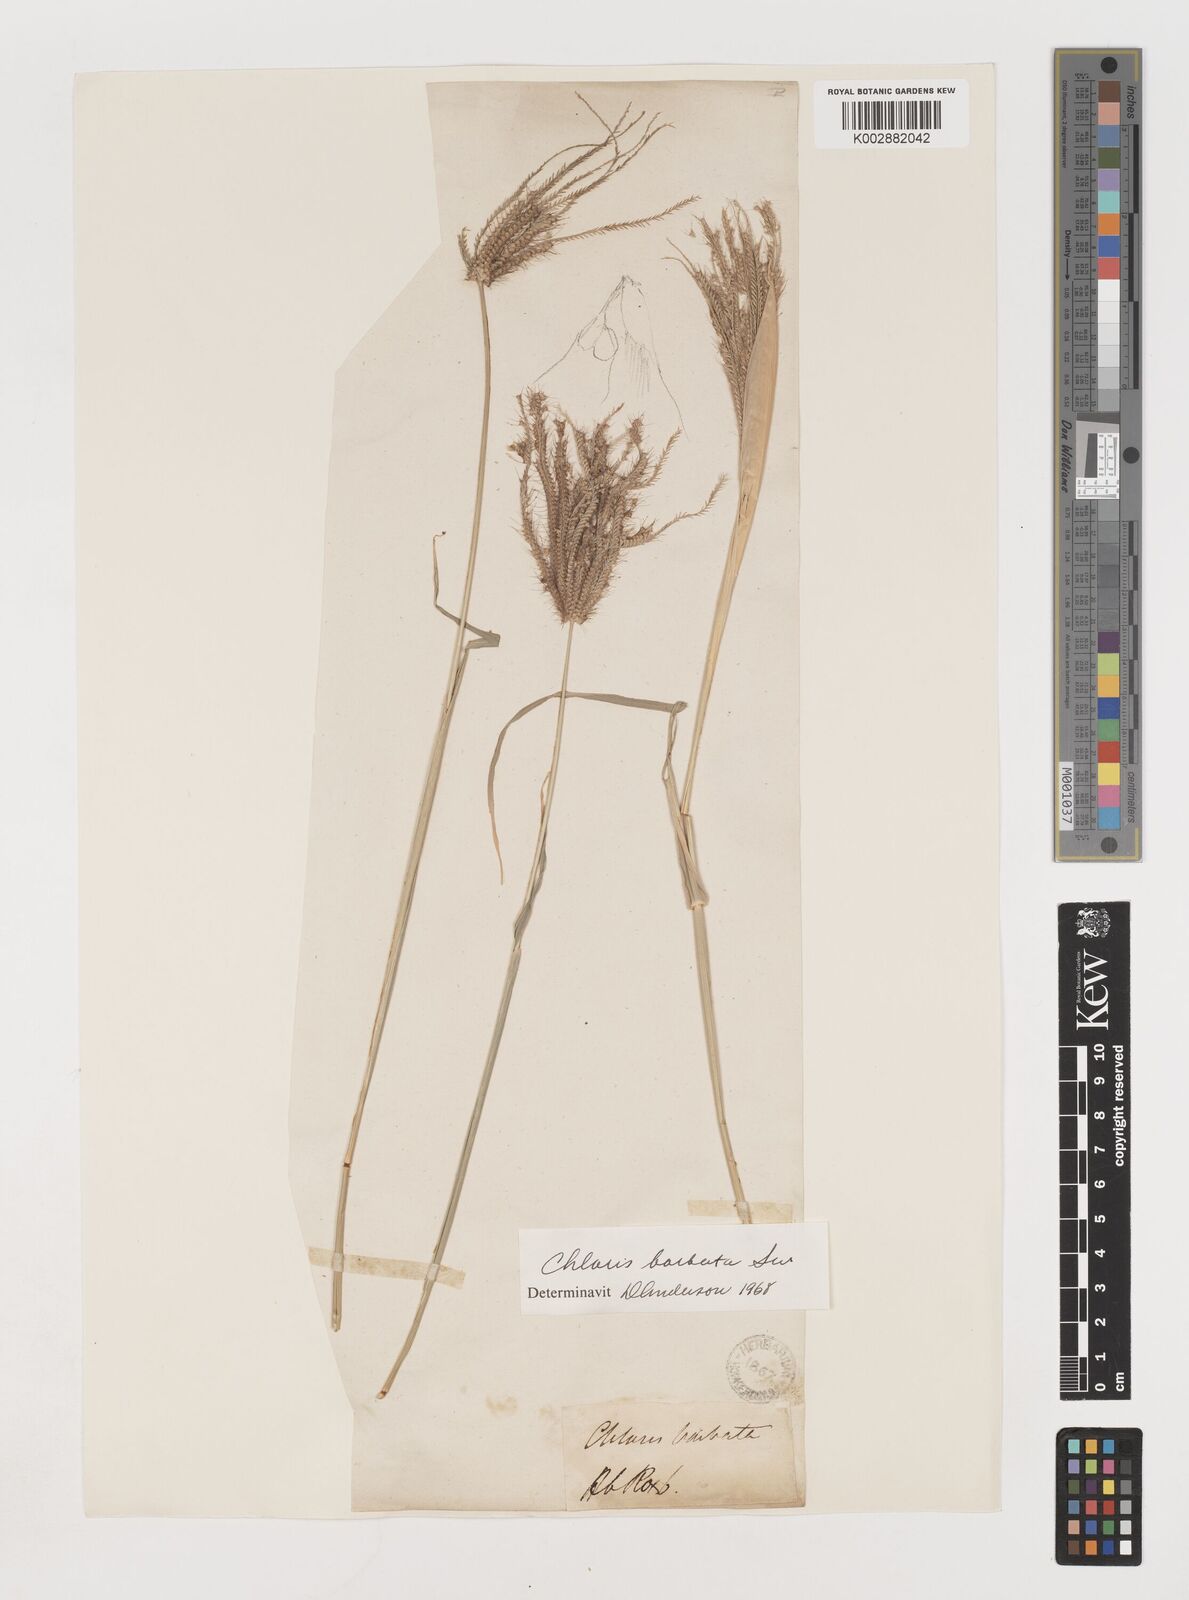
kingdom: Plantae
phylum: Tracheophyta
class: Liliopsida
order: Poales
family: Poaceae
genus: Chloris
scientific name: Chloris barbata
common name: Swollen fingergrass
